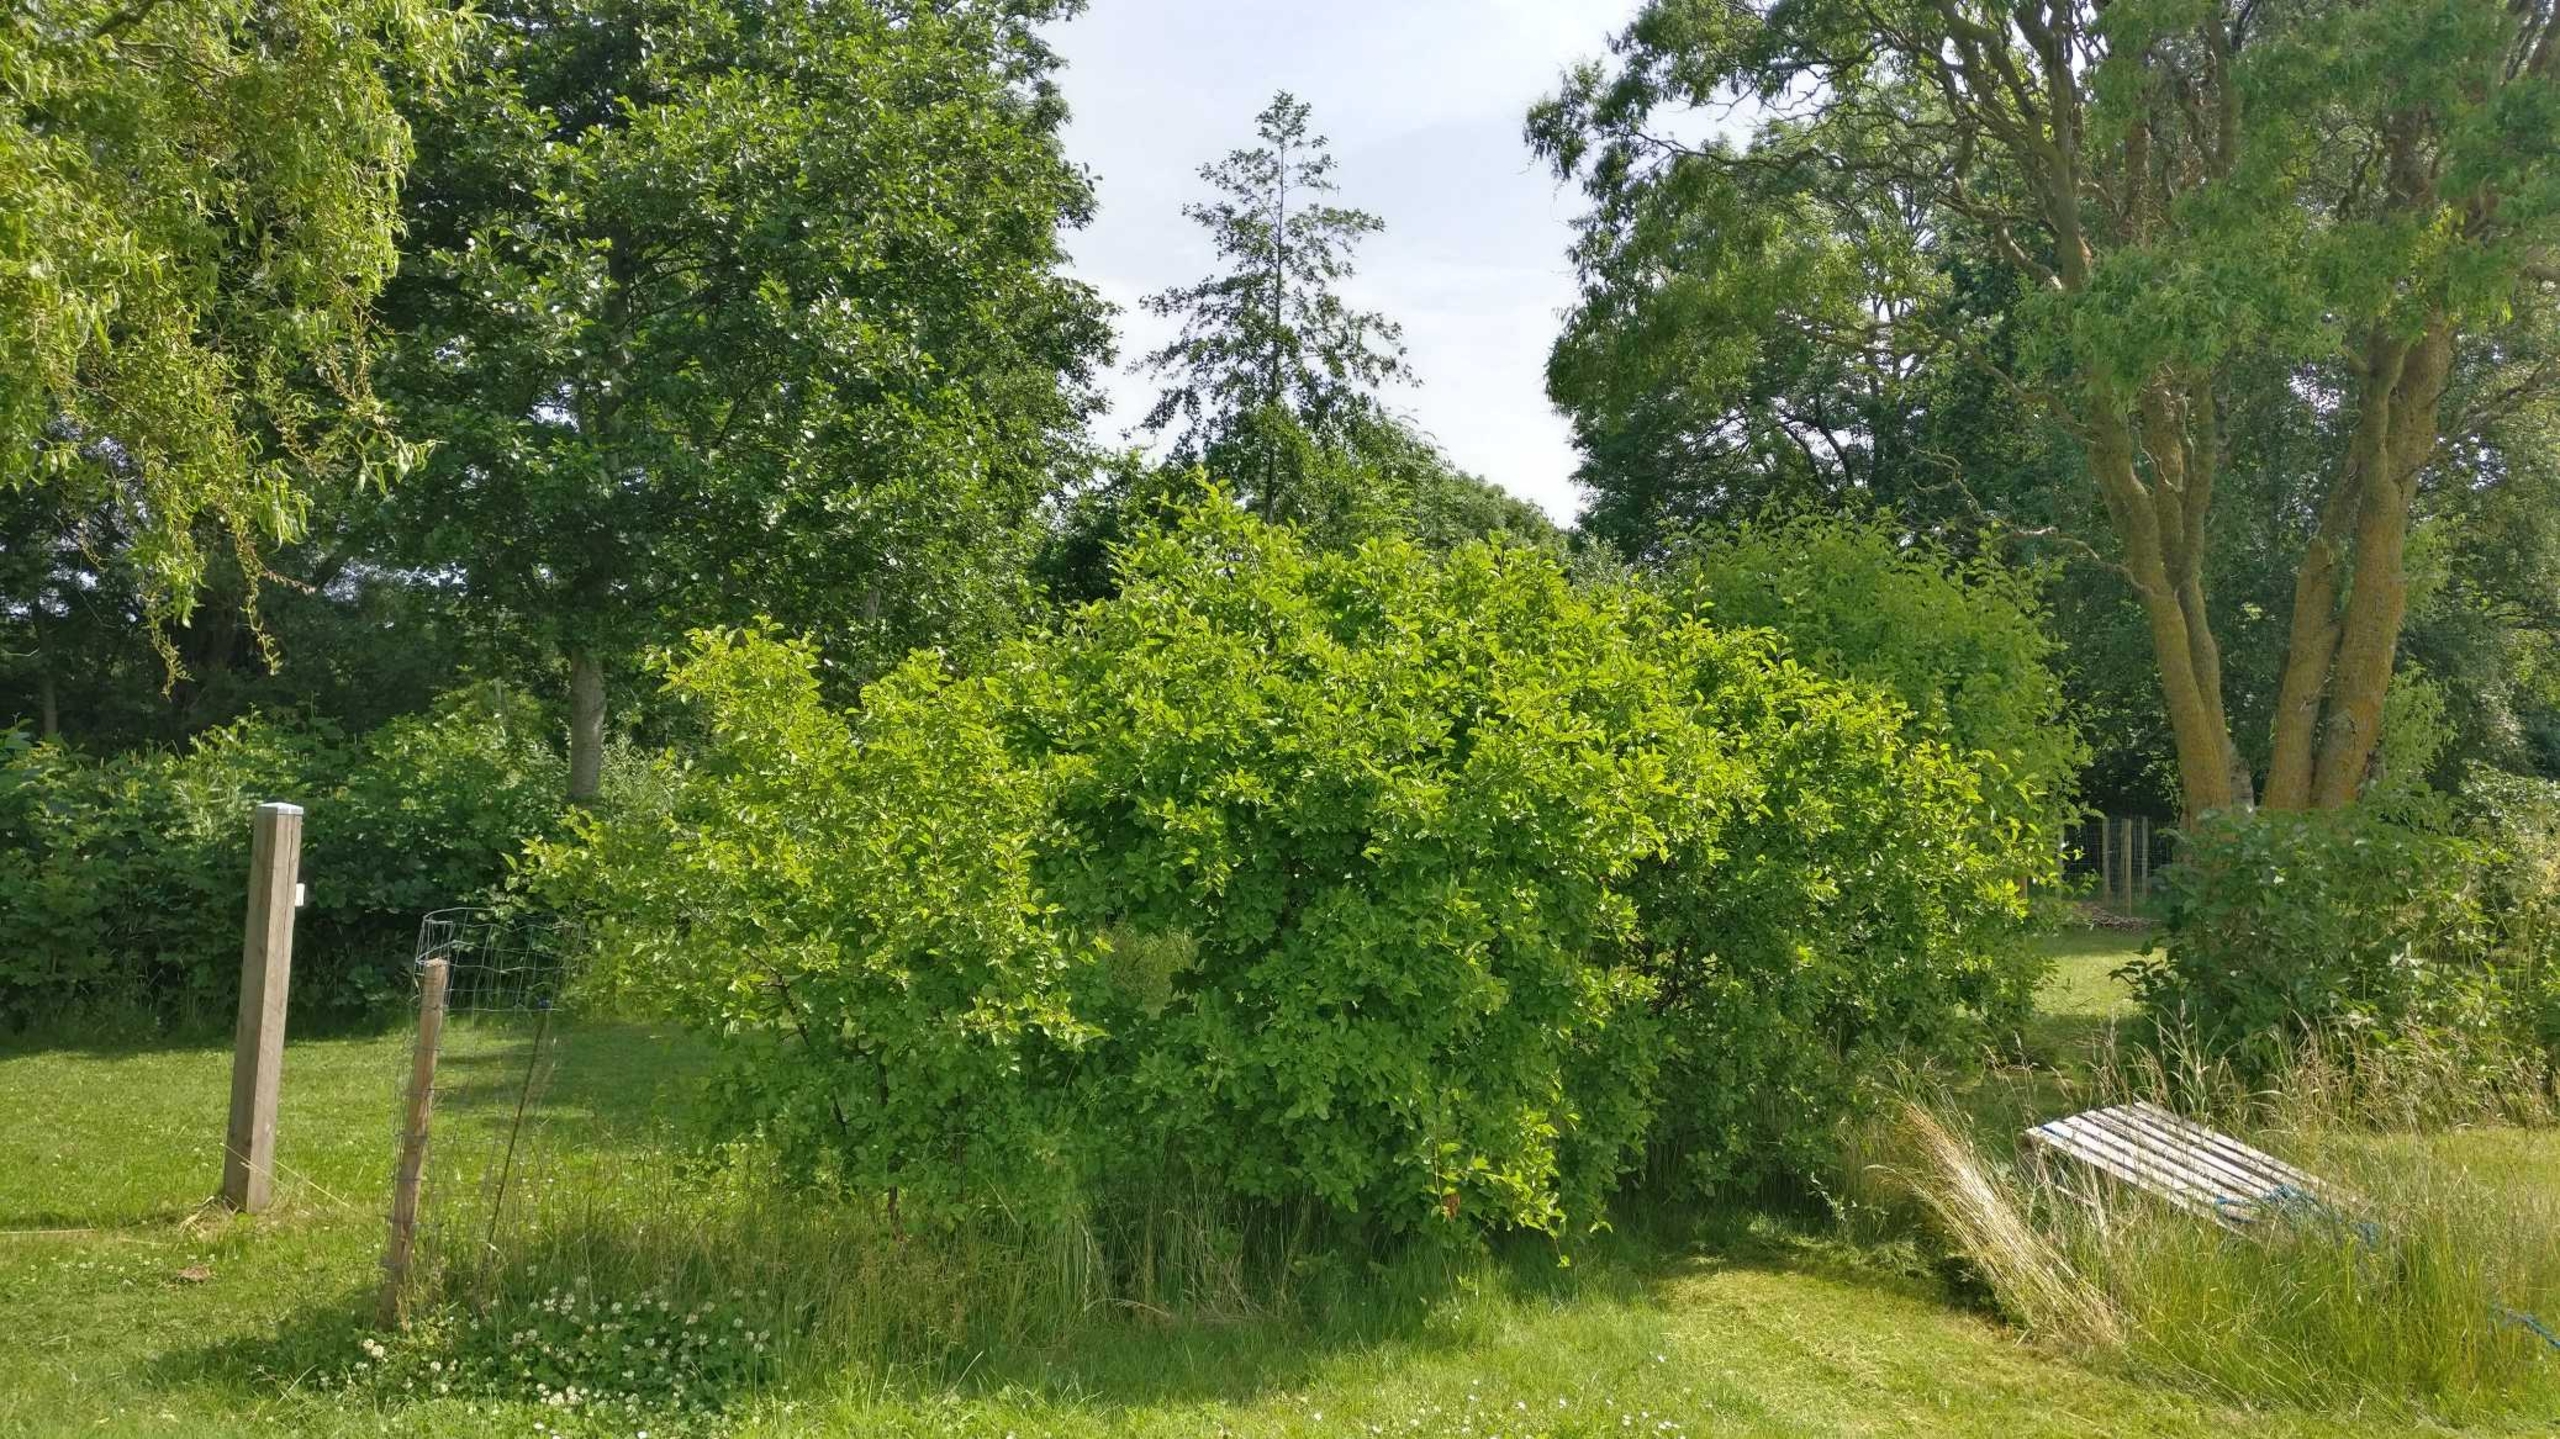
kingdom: Plantae
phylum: Tracheophyta
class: Magnoliopsida
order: Rosales
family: Rhamnaceae
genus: Rhamnus
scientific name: Rhamnus cathartica
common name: Vrietorn
